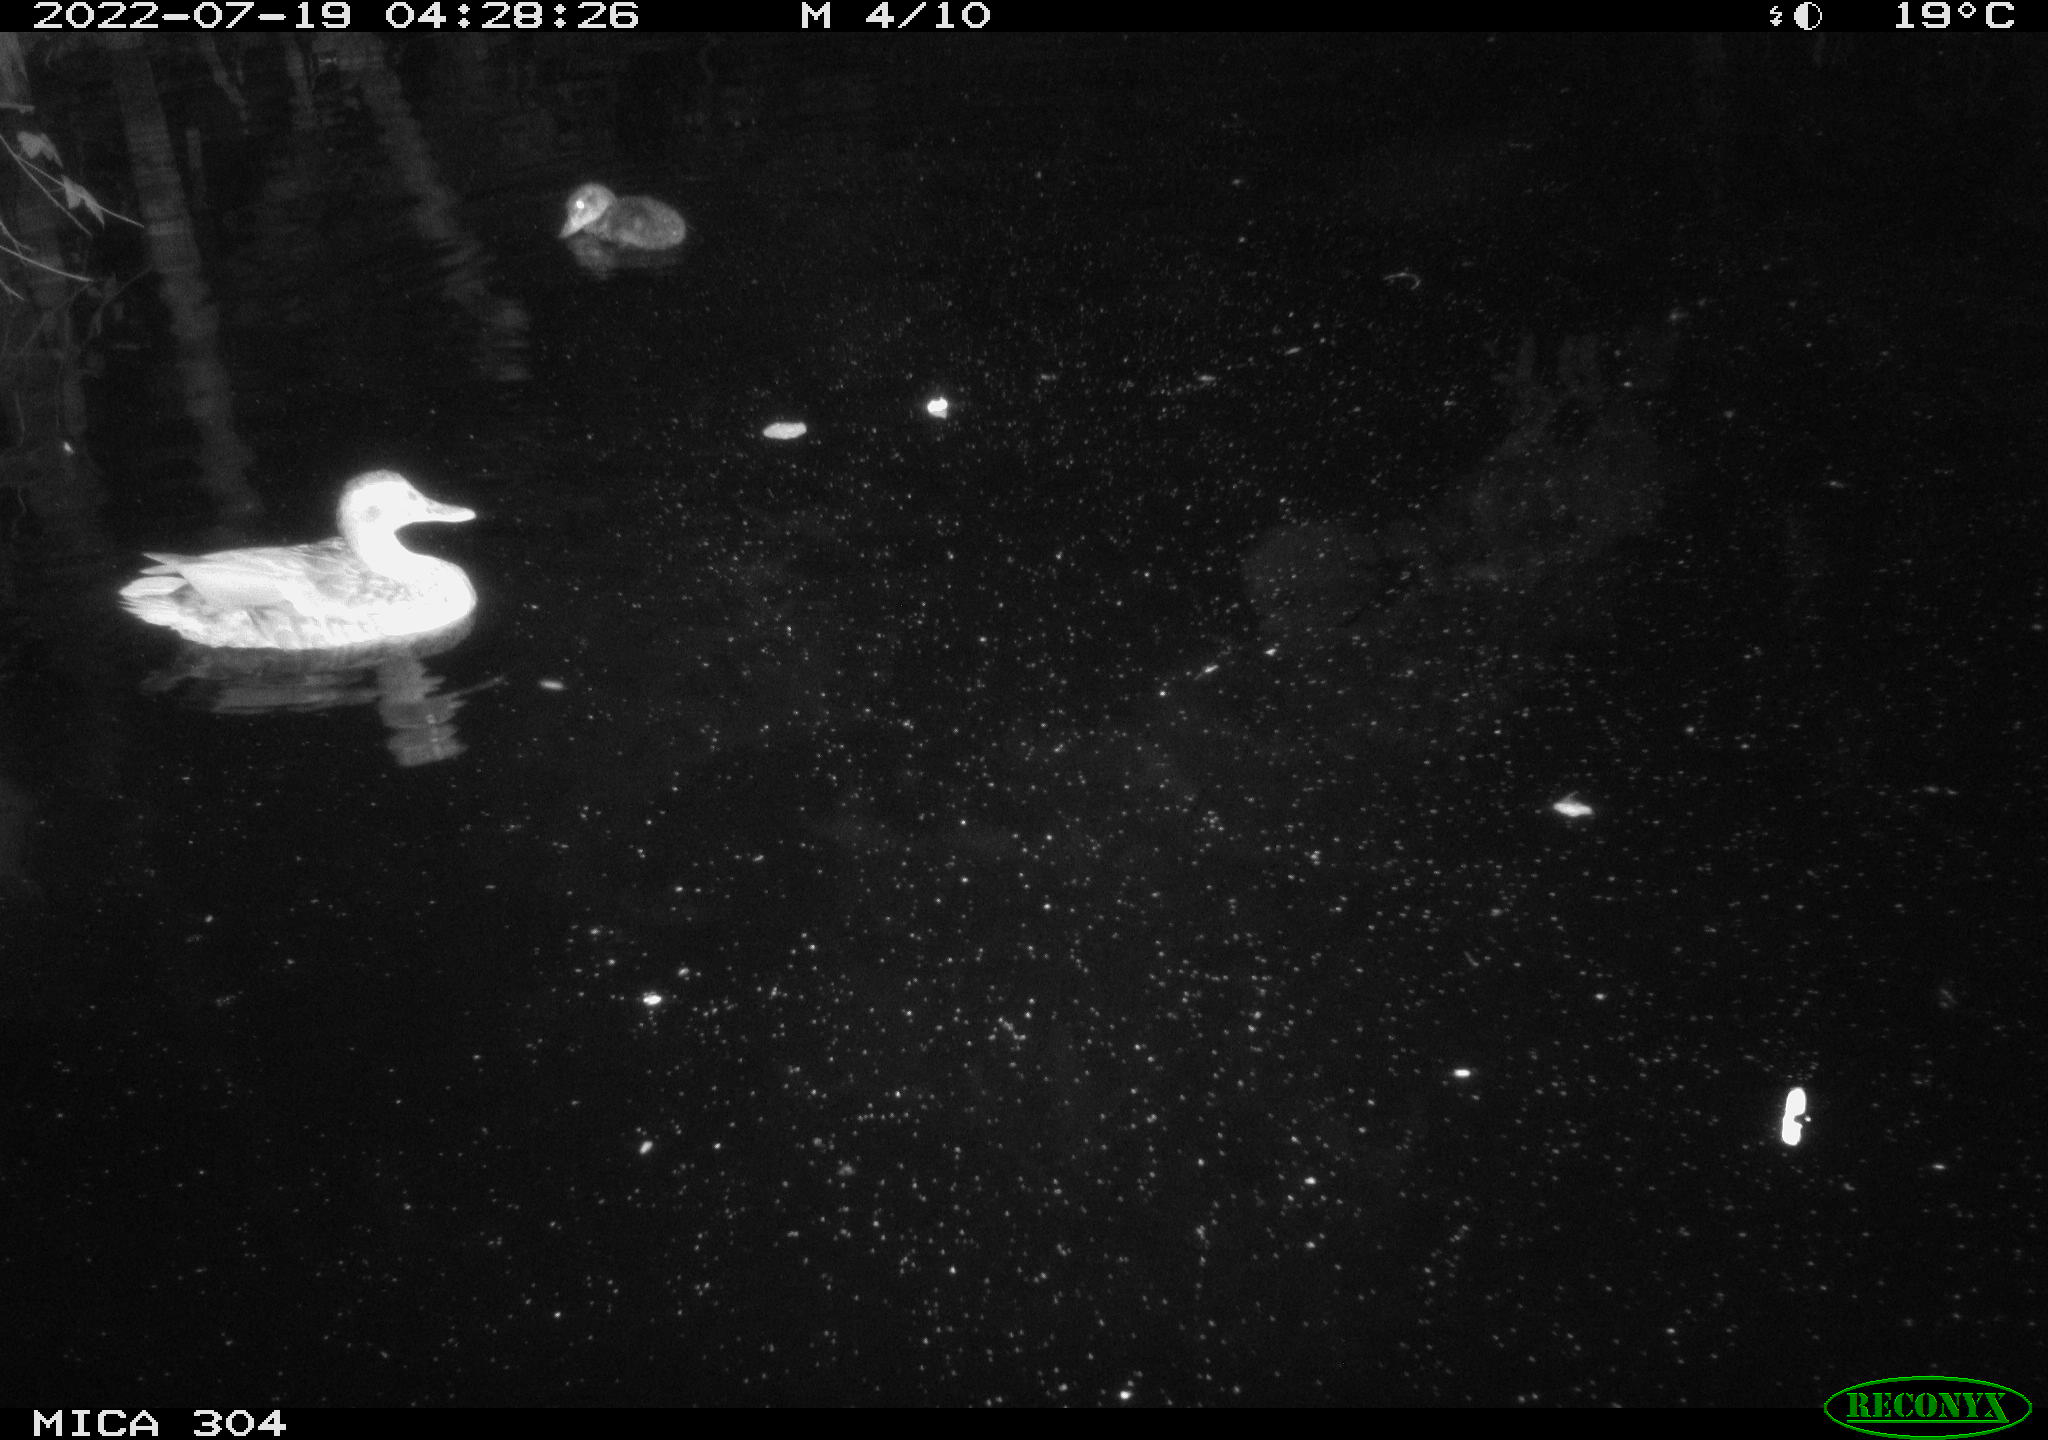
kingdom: Animalia
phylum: Chordata
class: Aves
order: Anseriformes
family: Anatidae
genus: Anas
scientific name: Anas platyrhynchos
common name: Mallard
